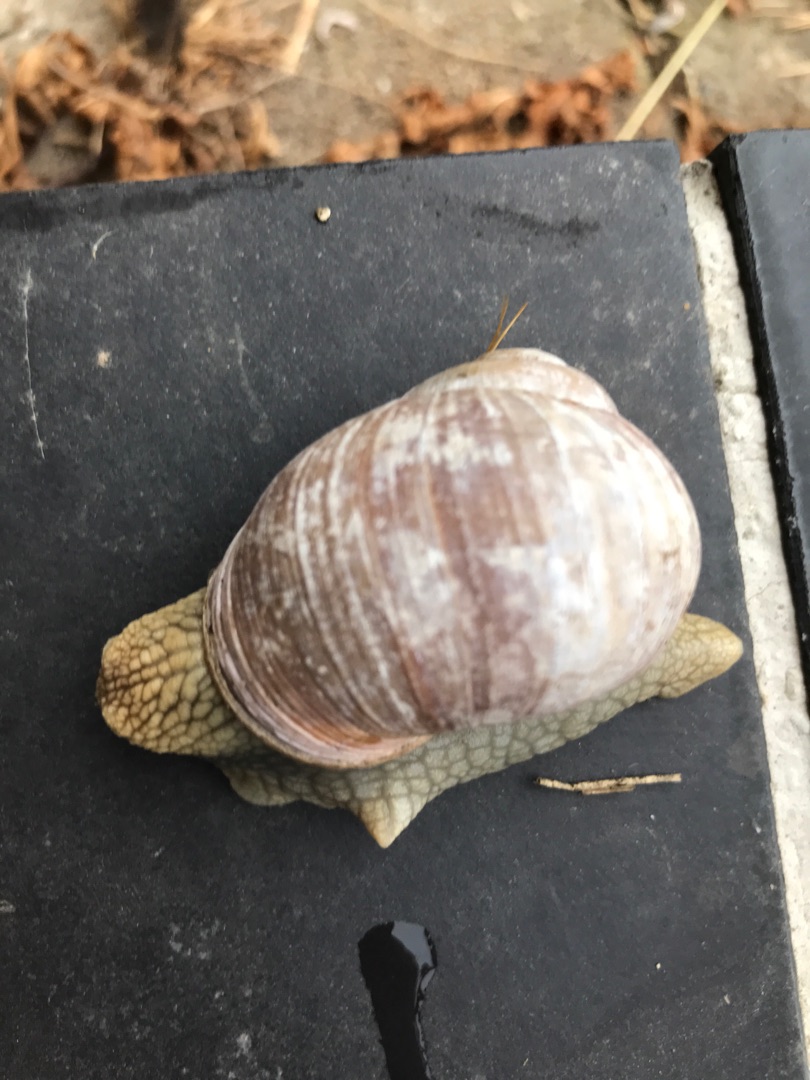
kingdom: Animalia
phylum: Mollusca
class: Gastropoda
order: Stylommatophora
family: Helicidae
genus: Helix
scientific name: Helix pomatia
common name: Vinbjergsnegl
